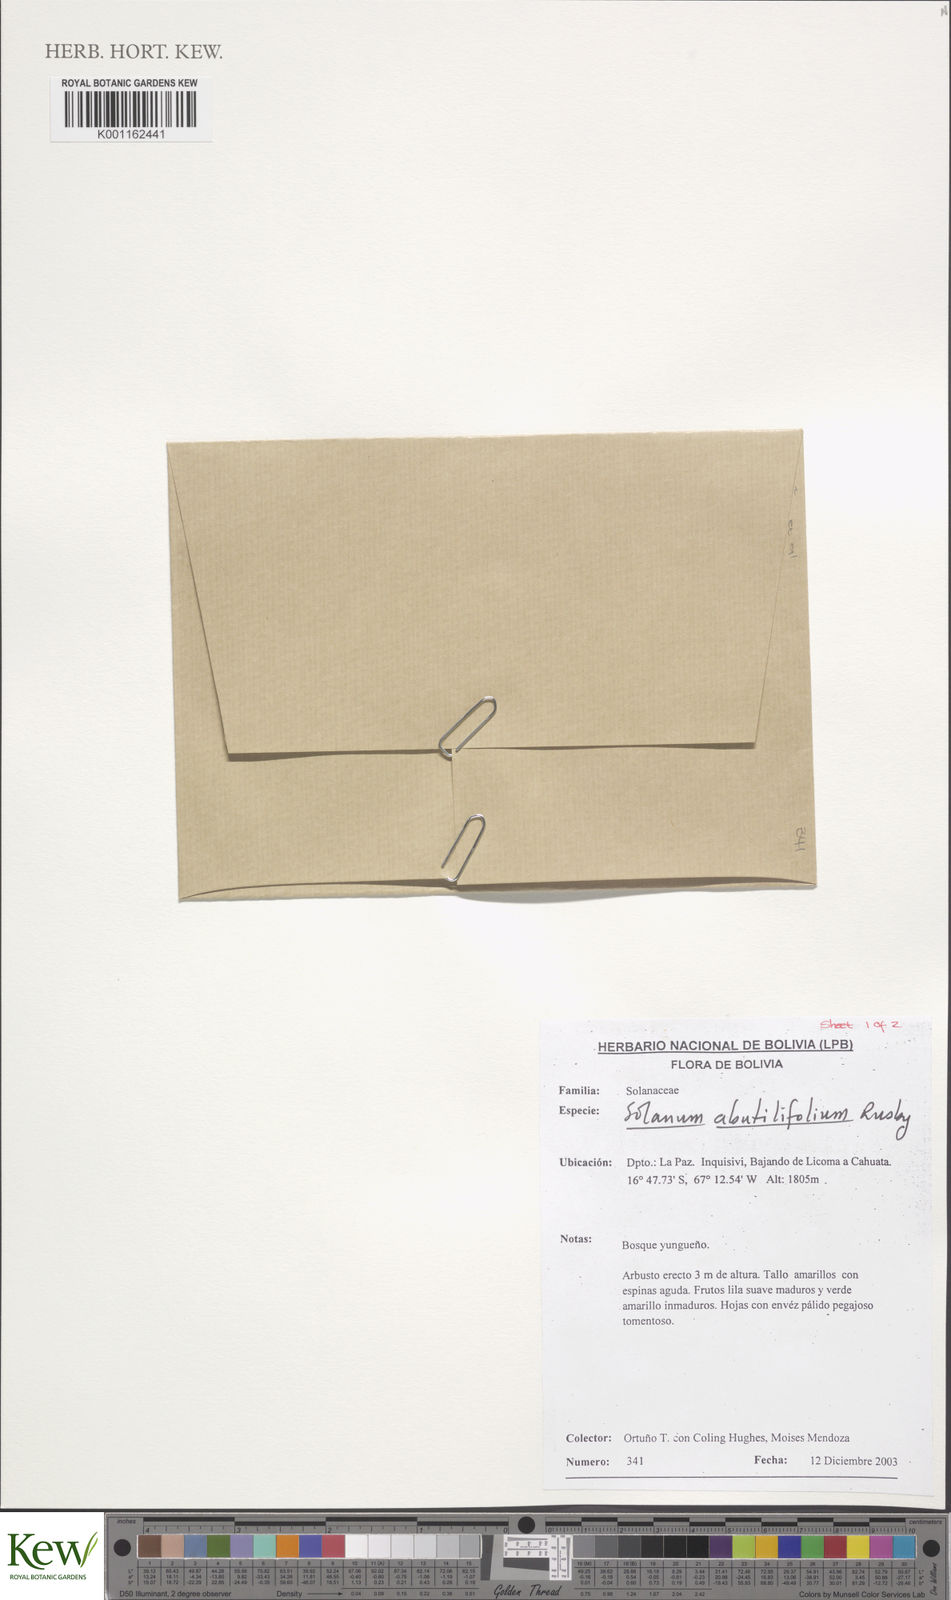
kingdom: Plantae
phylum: Tracheophyta
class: Magnoliopsida
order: Solanales
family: Solanaceae
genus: Solanum
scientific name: Solanum abutilifolium
